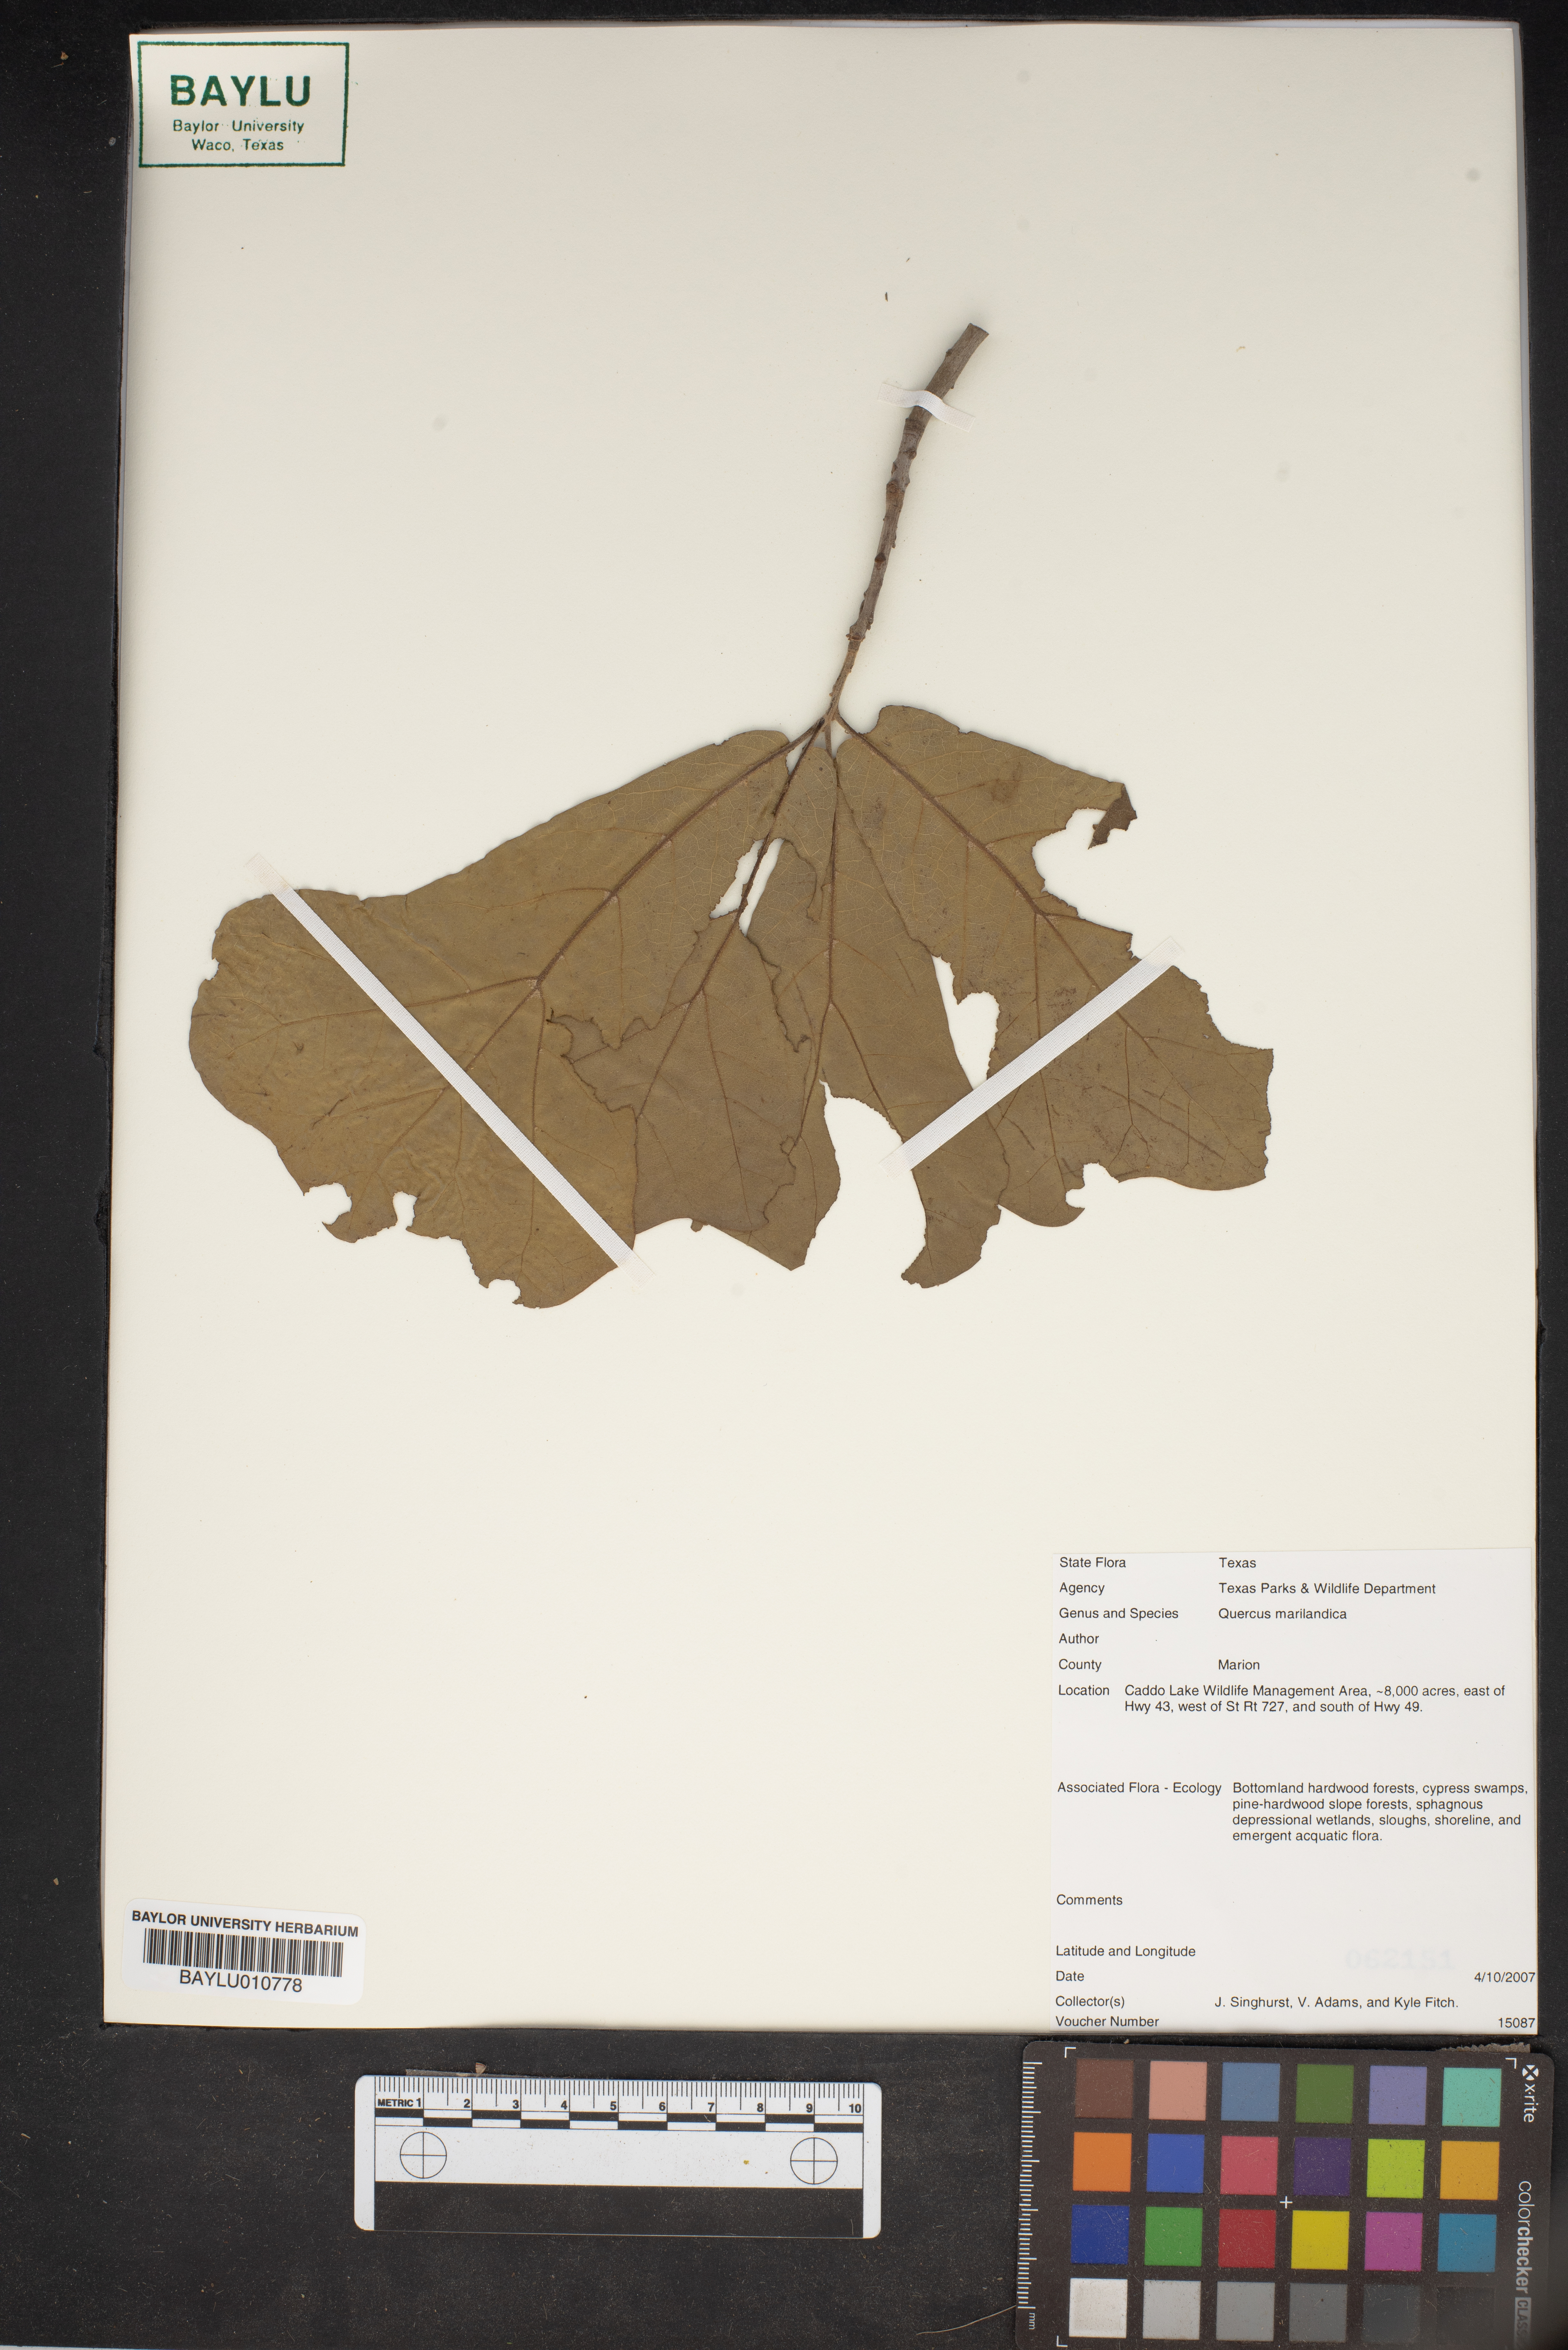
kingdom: Plantae
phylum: Tracheophyta
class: Magnoliopsida
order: Fagales
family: Fagaceae
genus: Quercus
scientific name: Quercus marilandica
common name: Blackjack oak
